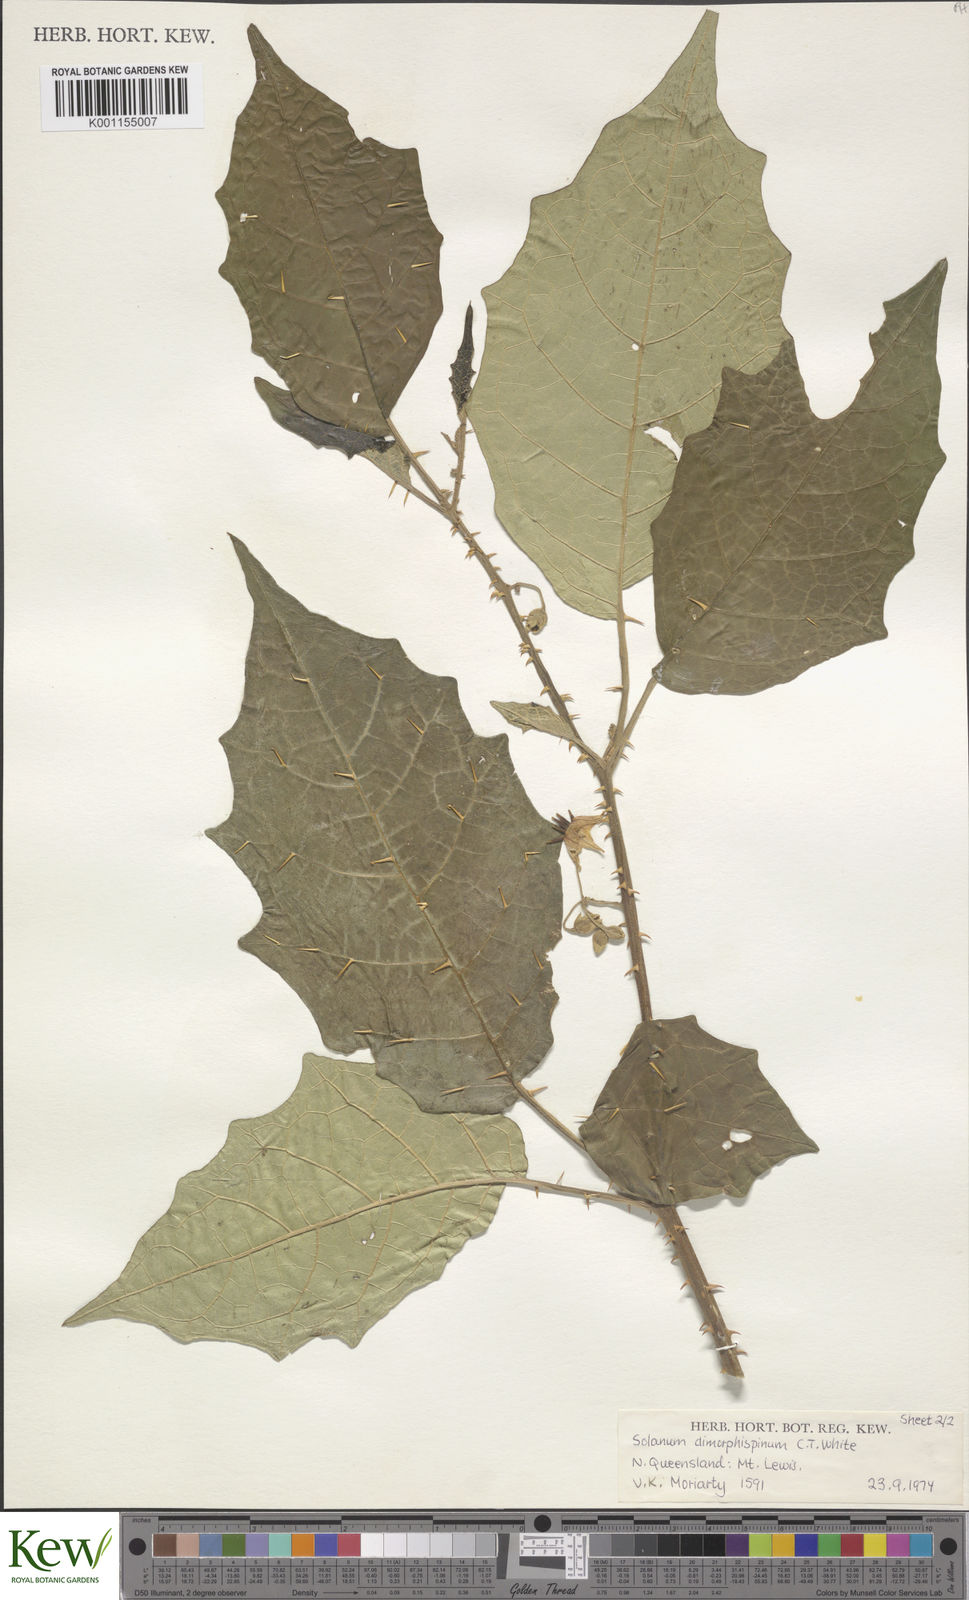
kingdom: Plantae
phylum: Tracheophyta
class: Magnoliopsida
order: Solanales
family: Solanaceae
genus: Solanum
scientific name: Solanum dimorphispinum
